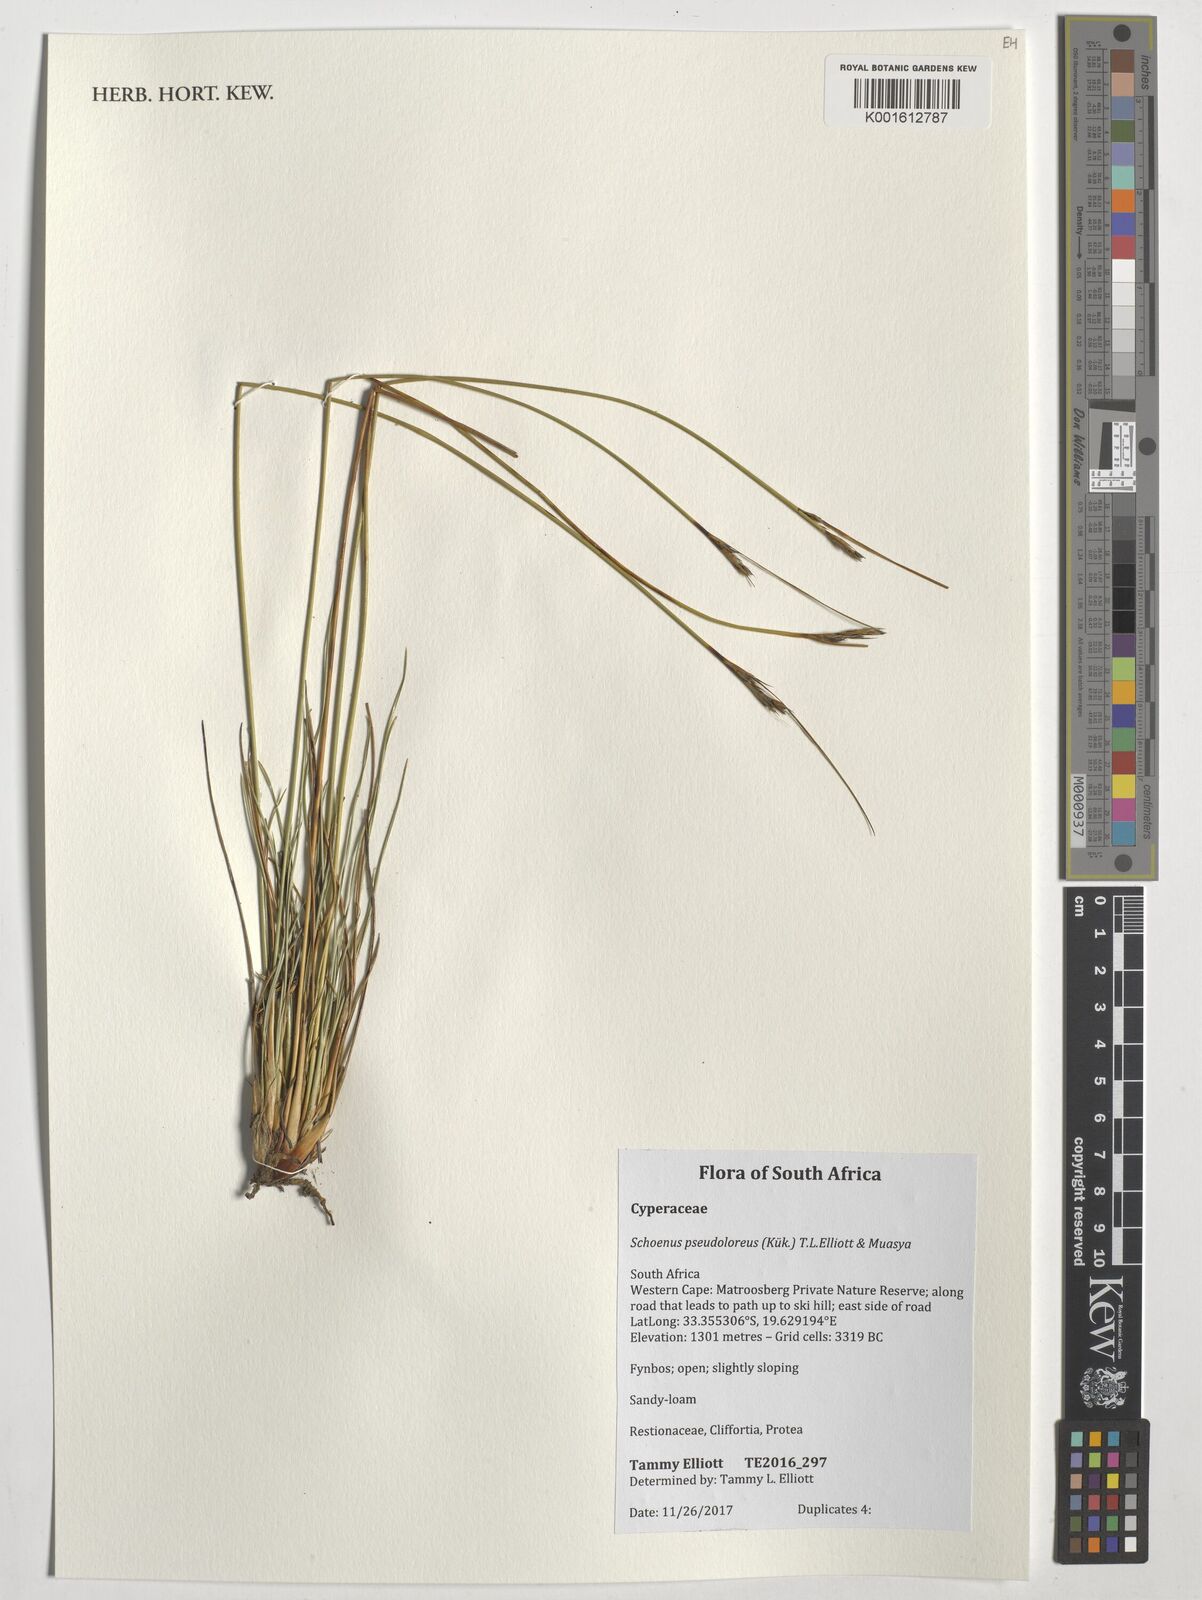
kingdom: Plantae
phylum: Tracheophyta
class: Liliopsida
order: Poales
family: Cyperaceae
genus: Schoenus
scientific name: Schoenus pseudoloreus
